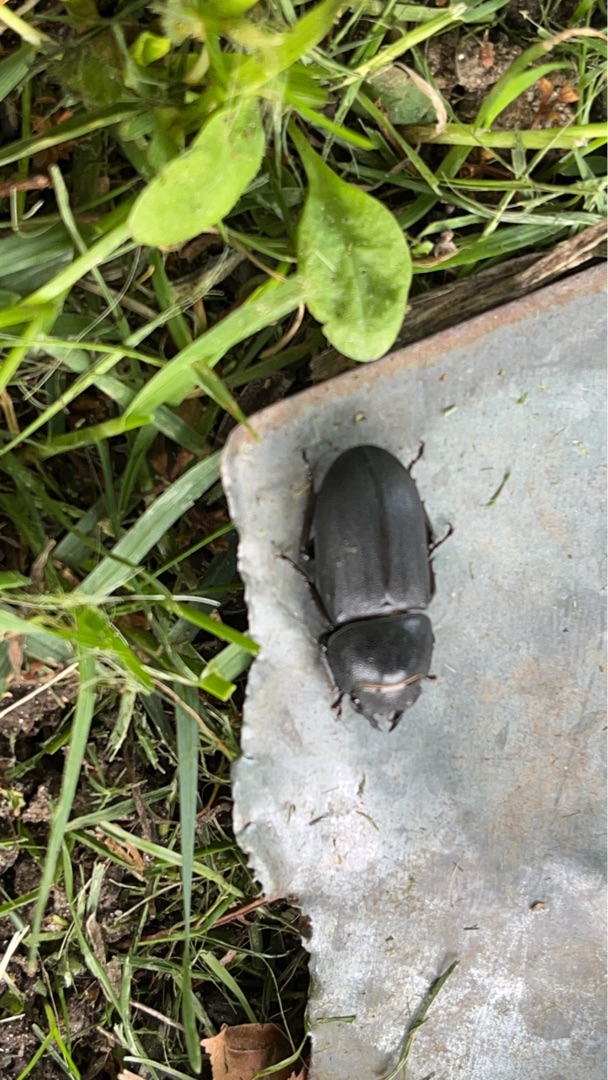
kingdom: Animalia
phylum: Arthropoda
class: Insecta
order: Coleoptera
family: Lucanidae
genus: Dorcus
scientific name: Dorcus parallelipipedus
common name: Bøghjort
